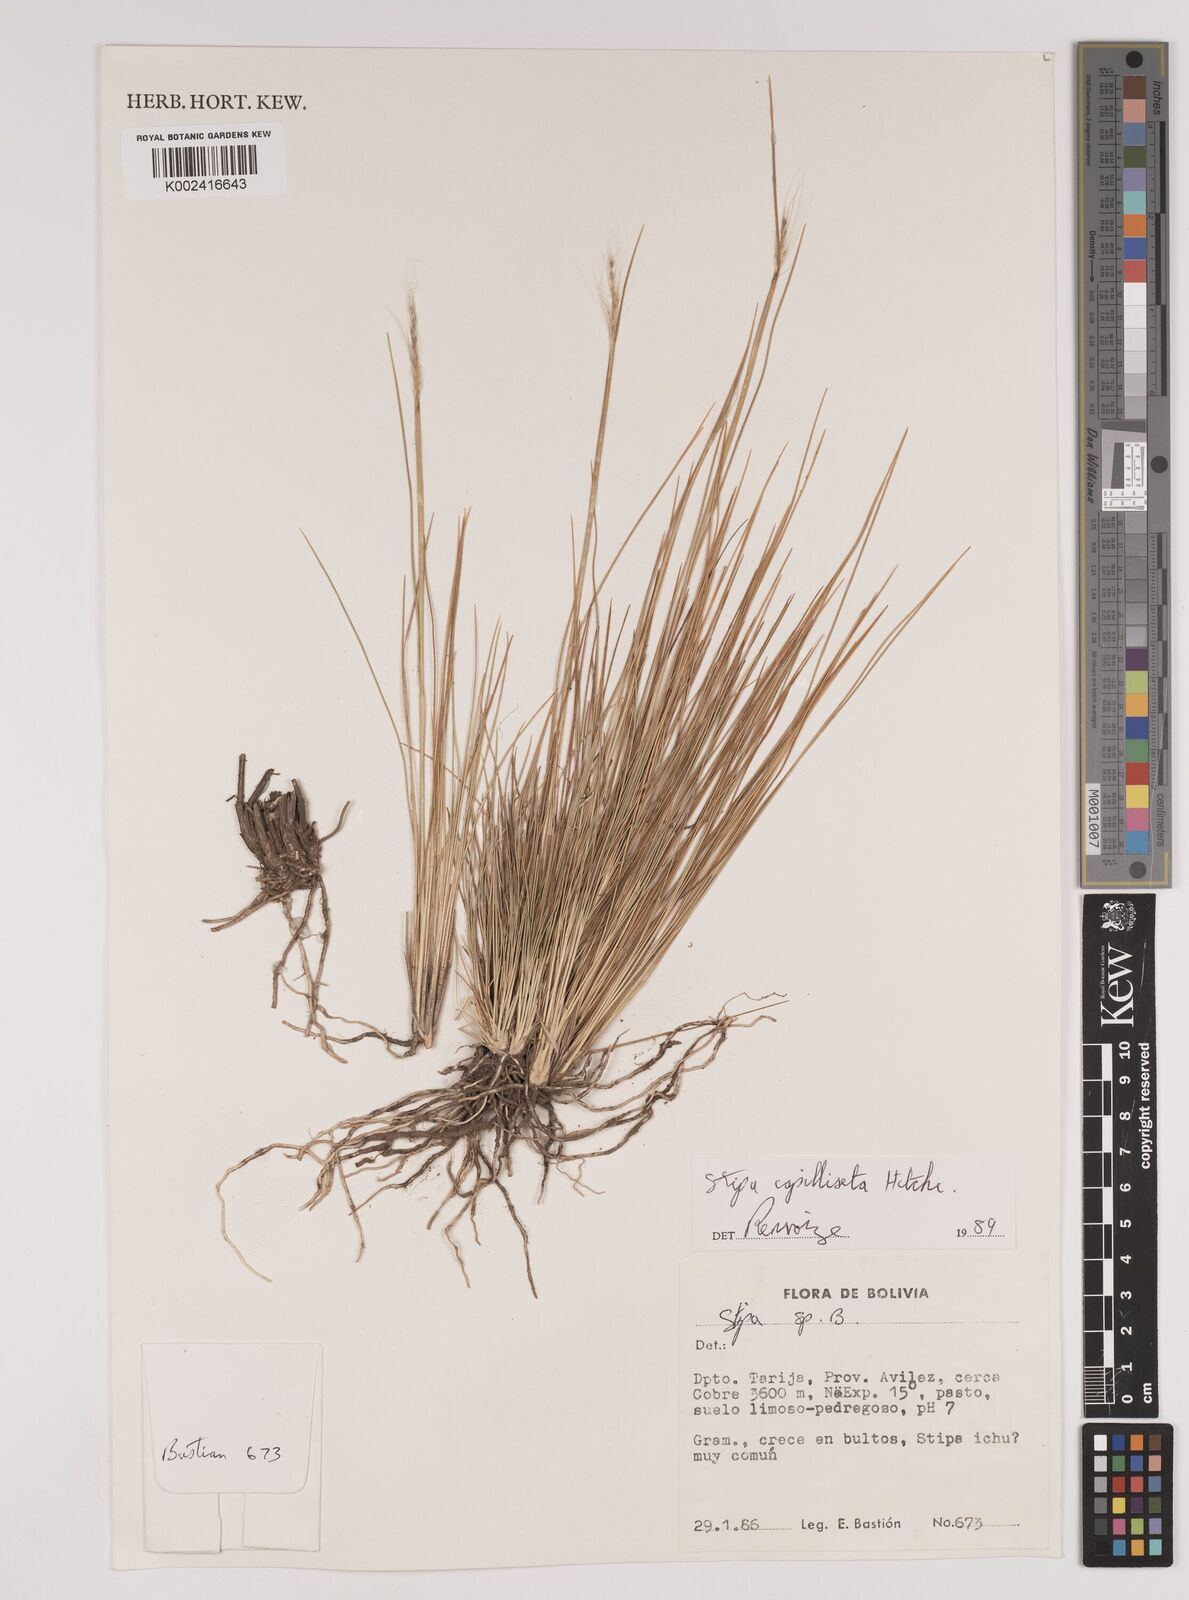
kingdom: Plantae
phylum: Tracheophyta
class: Liliopsida
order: Poales
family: Poaceae
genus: Jarava
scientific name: Jarava leptostachya
